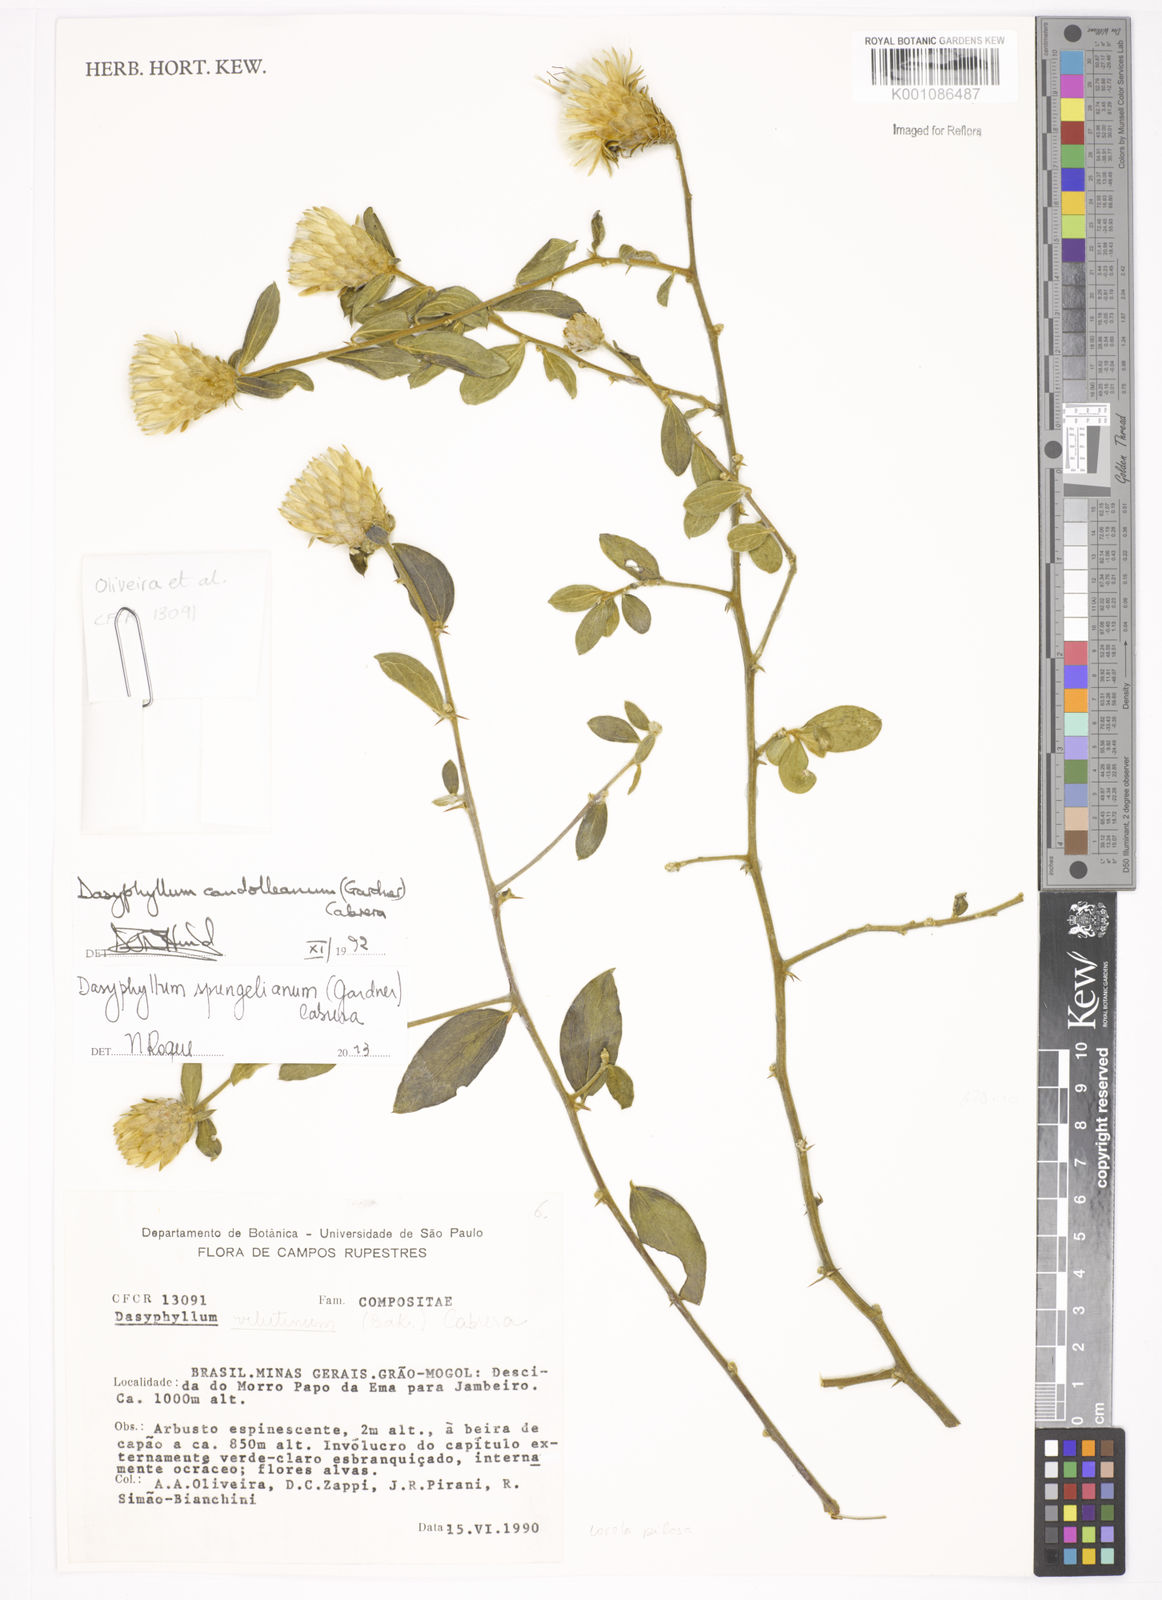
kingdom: Plantae
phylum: Tracheophyta
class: Magnoliopsida
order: Asterales
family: Asteraceae
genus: Dasyphyllum
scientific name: Dasyphyllum sprengelianum
